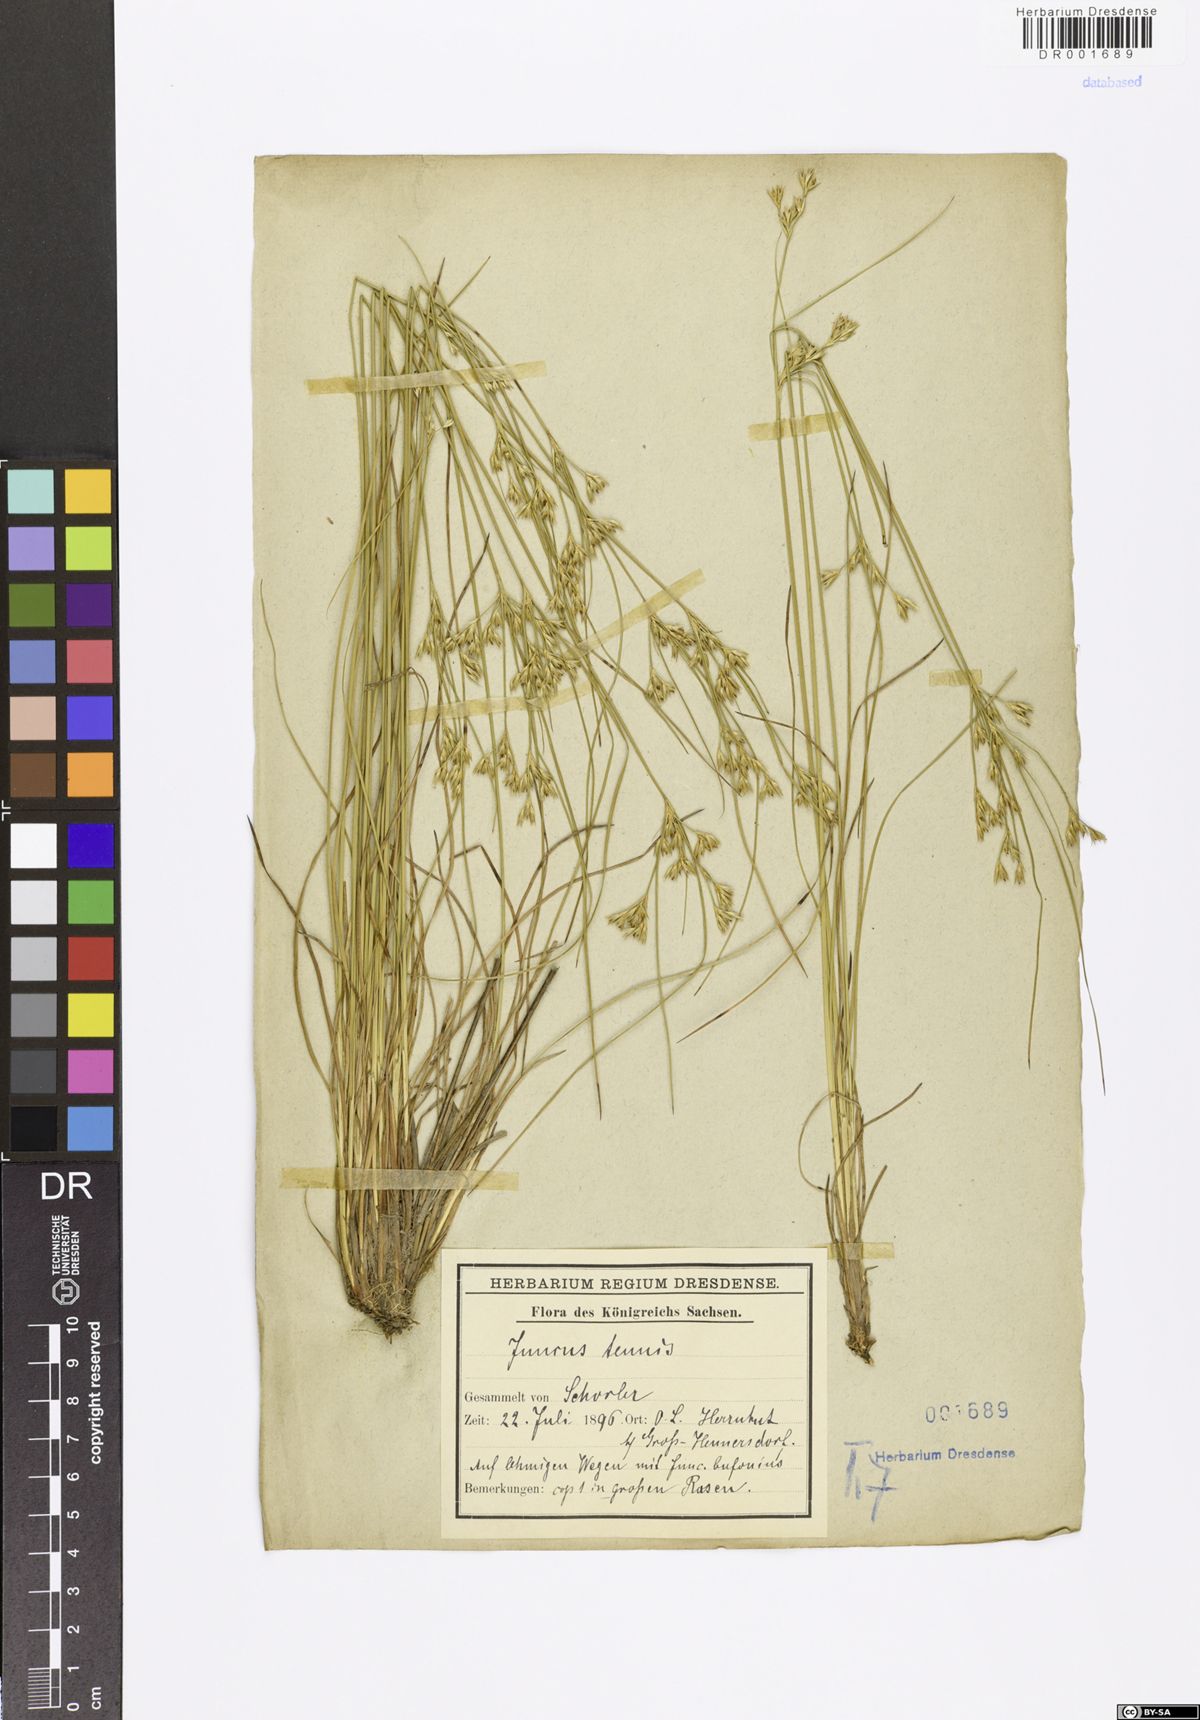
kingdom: Plantae
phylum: Tracheophyta
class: Liliopsida
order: Poales
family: Juncaceae
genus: Juncus
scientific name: Juncus tenuis
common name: Slender rush
